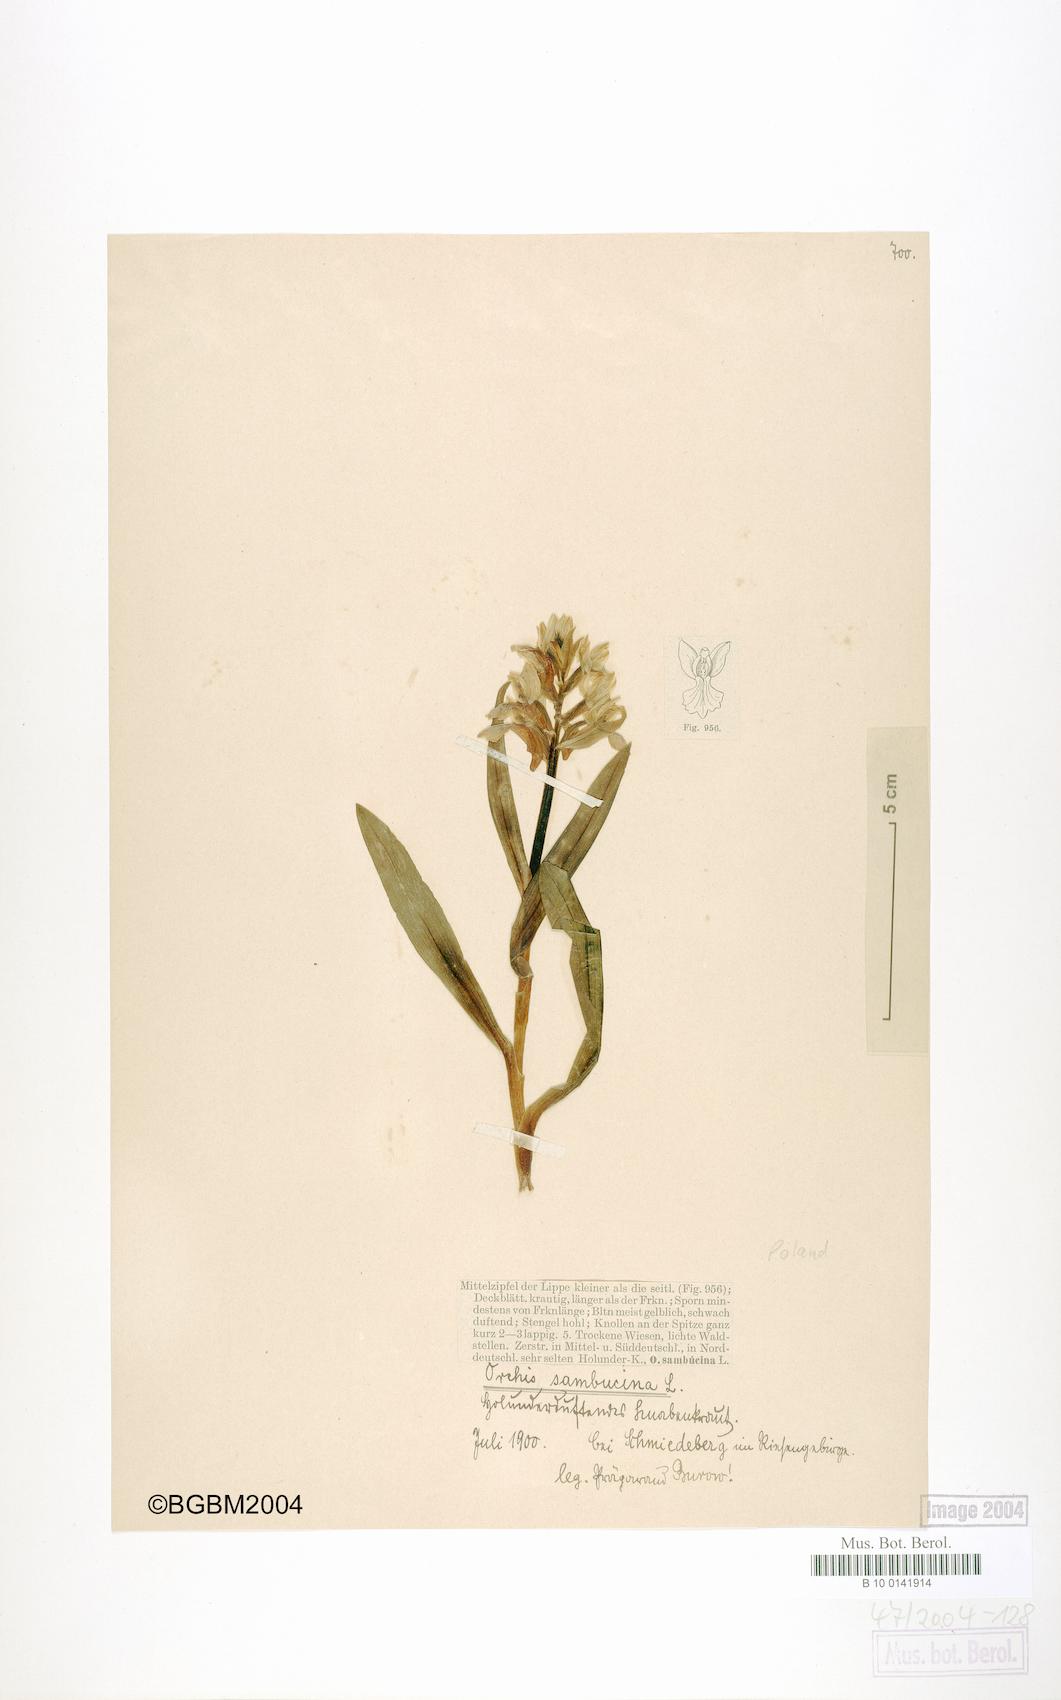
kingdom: Plantae
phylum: Tracheophyta
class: Liliopsida
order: Asparagales
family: Orchidaceae
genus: Dactylorhiza
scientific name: Dactylorhiza sambucina
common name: Elder-flowered orchid
